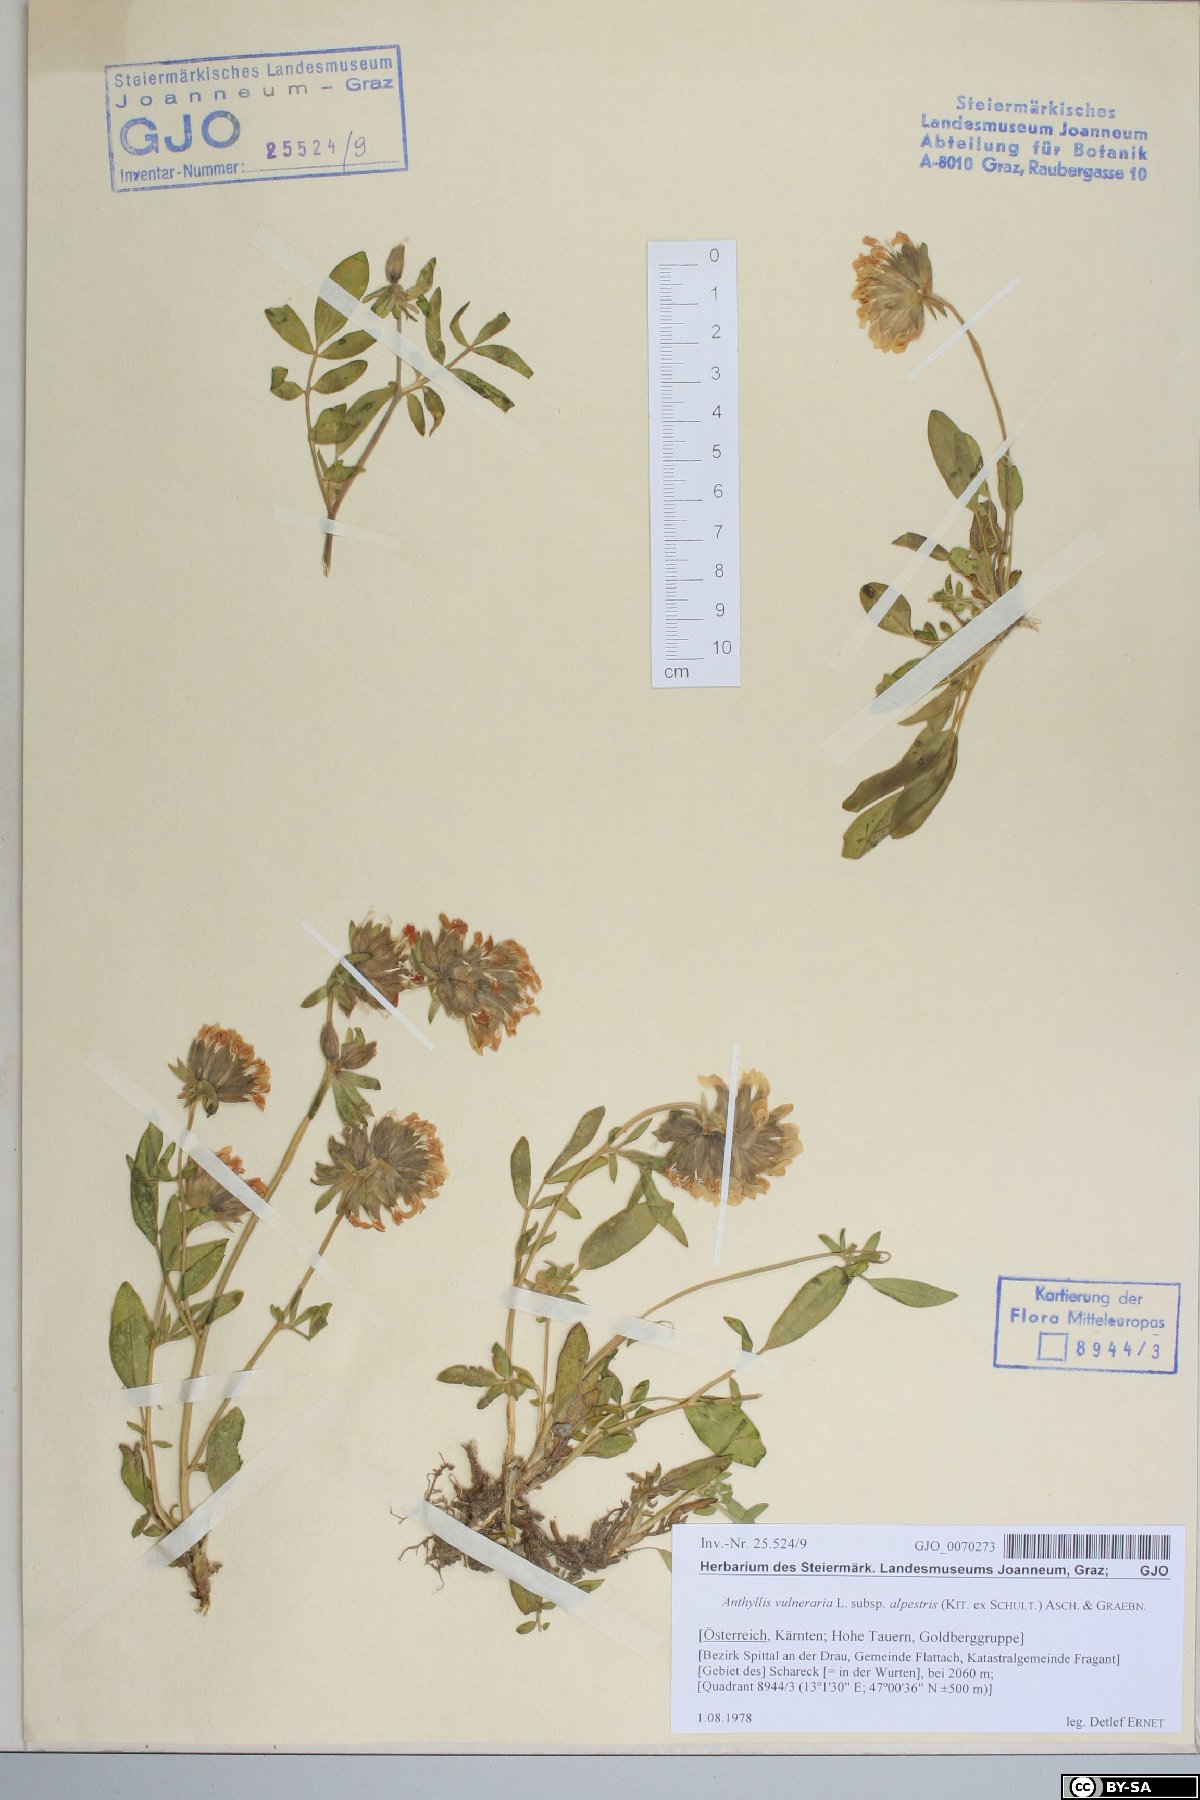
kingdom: Plantae
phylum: Tracheophyta
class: Magnoliopsida
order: Fabales
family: Fabaceae
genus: Anthyllis
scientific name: Anthyllis vulneraria
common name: Kidney vetch
